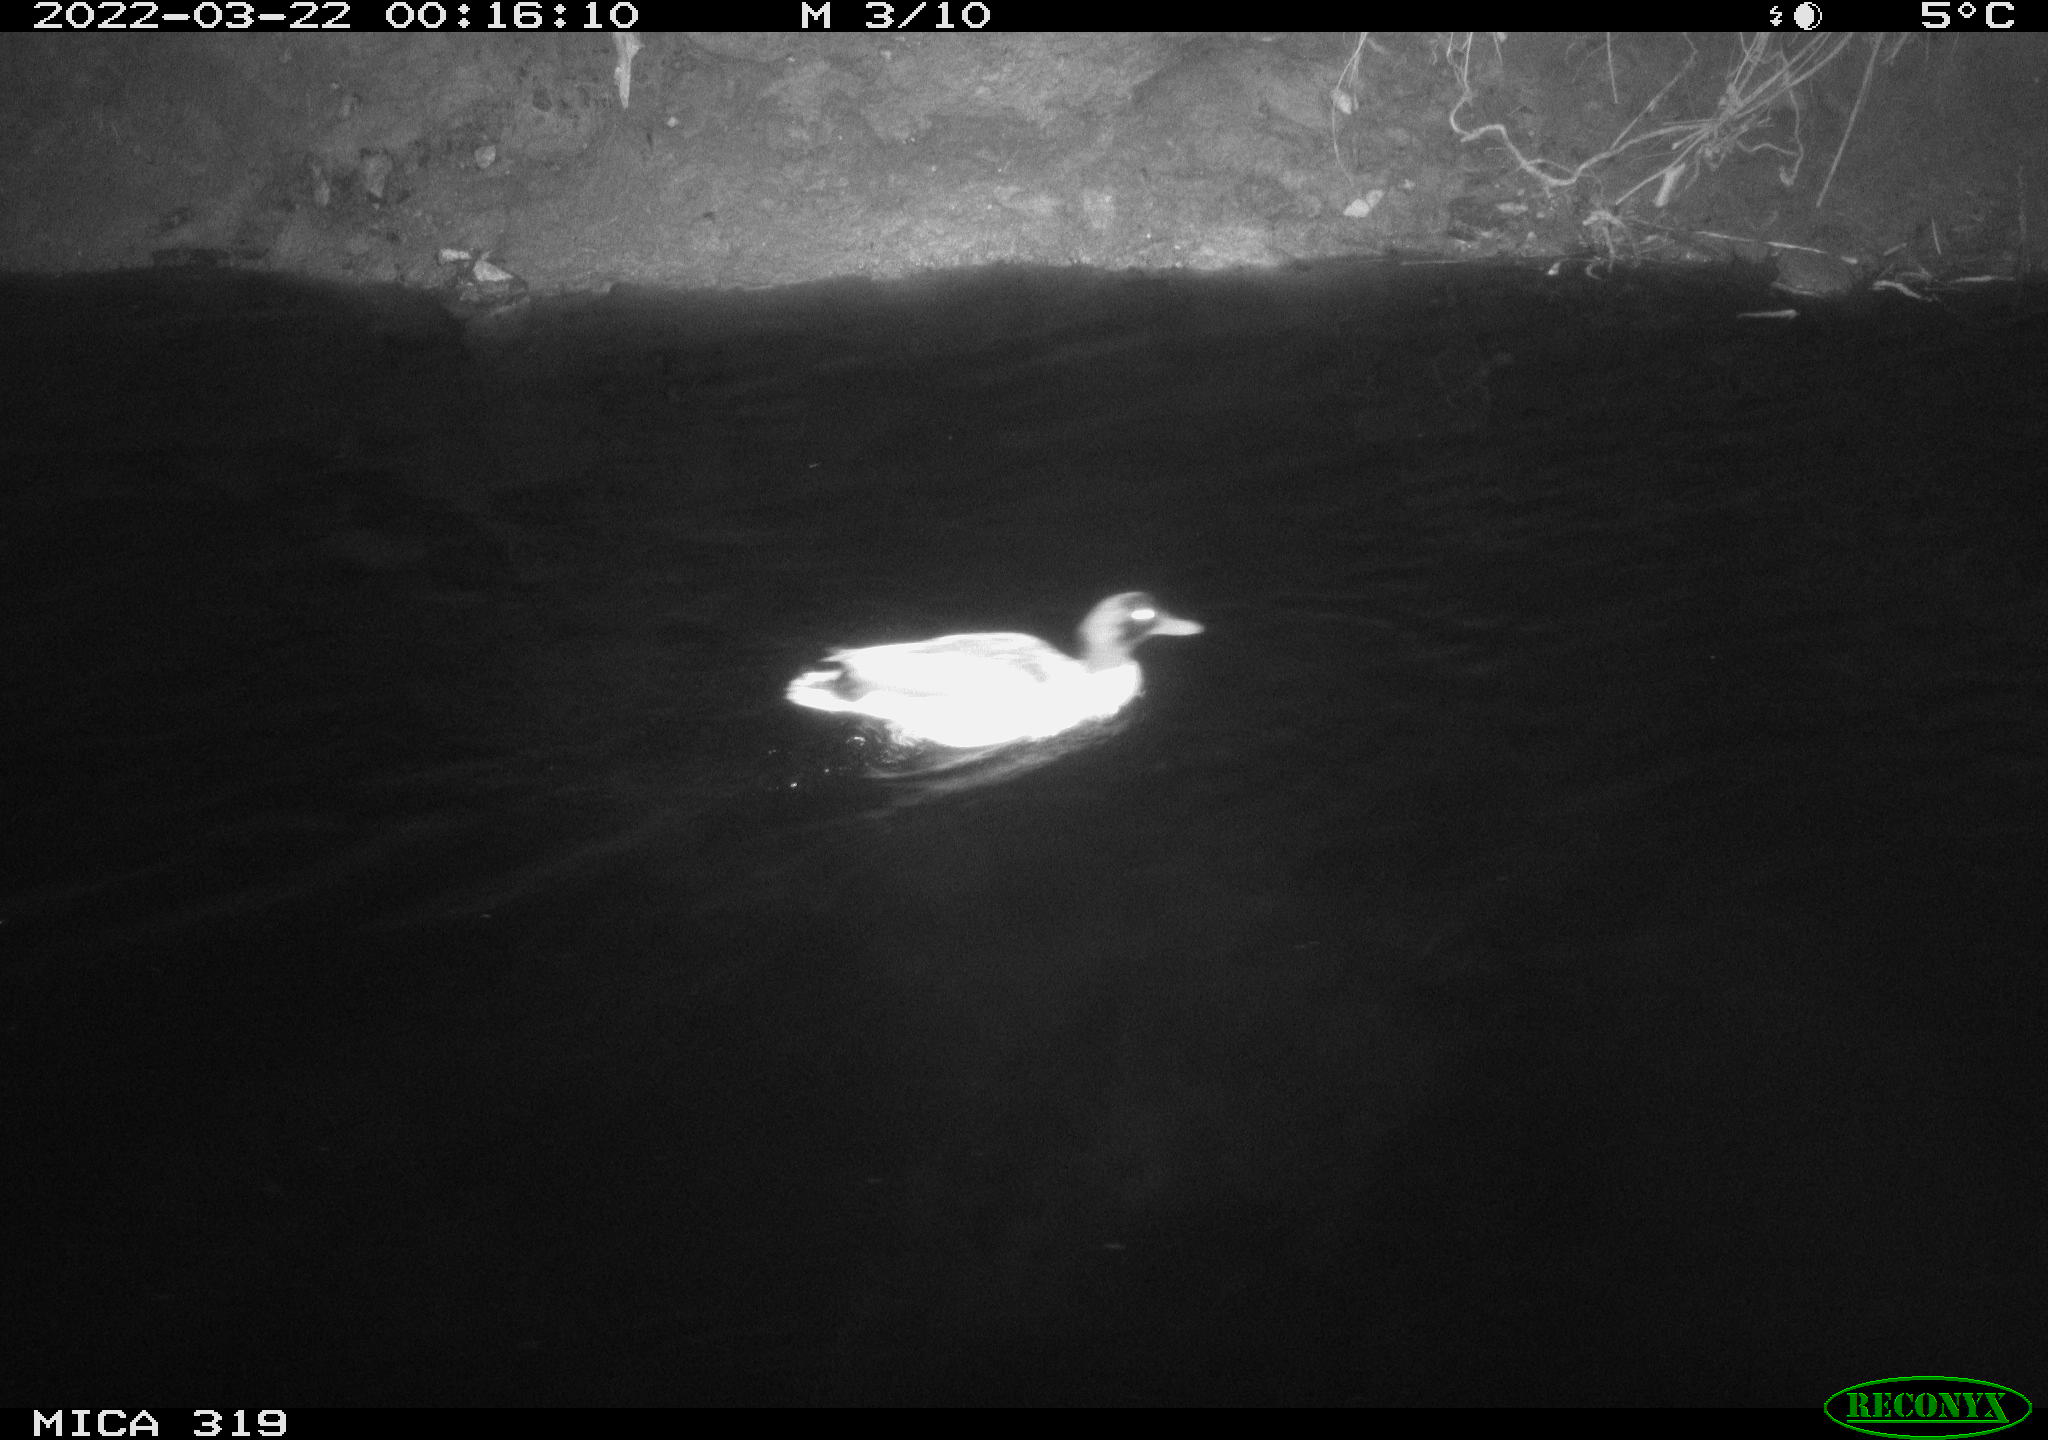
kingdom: Animalia
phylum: Chordata
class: Aves
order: Anseriformes
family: Anatidae
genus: Anas
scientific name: Anas platyrhynchos
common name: Mallard
